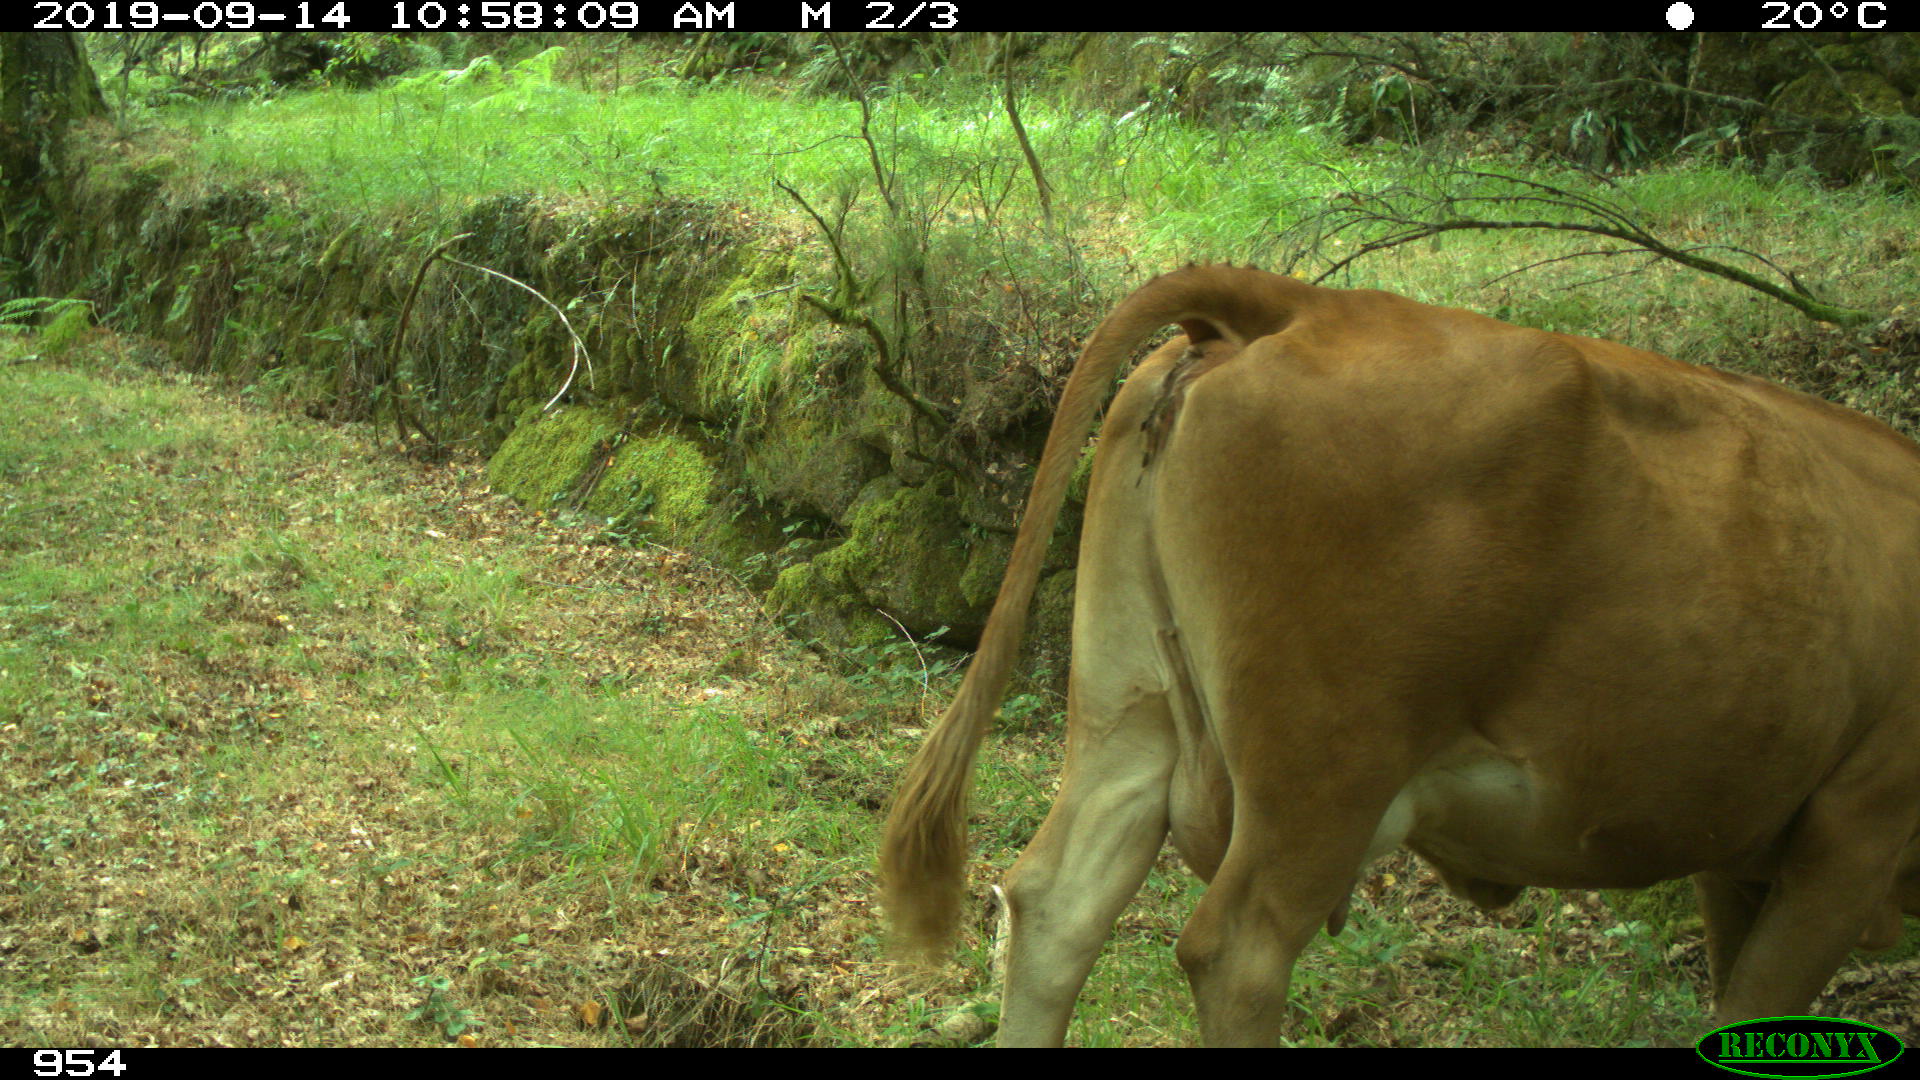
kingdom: Animalia
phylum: Chordata
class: Mammalia
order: Artiodactyla
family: Bovidae
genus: Bos
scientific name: Bos taurus
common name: Domesticated cattle
